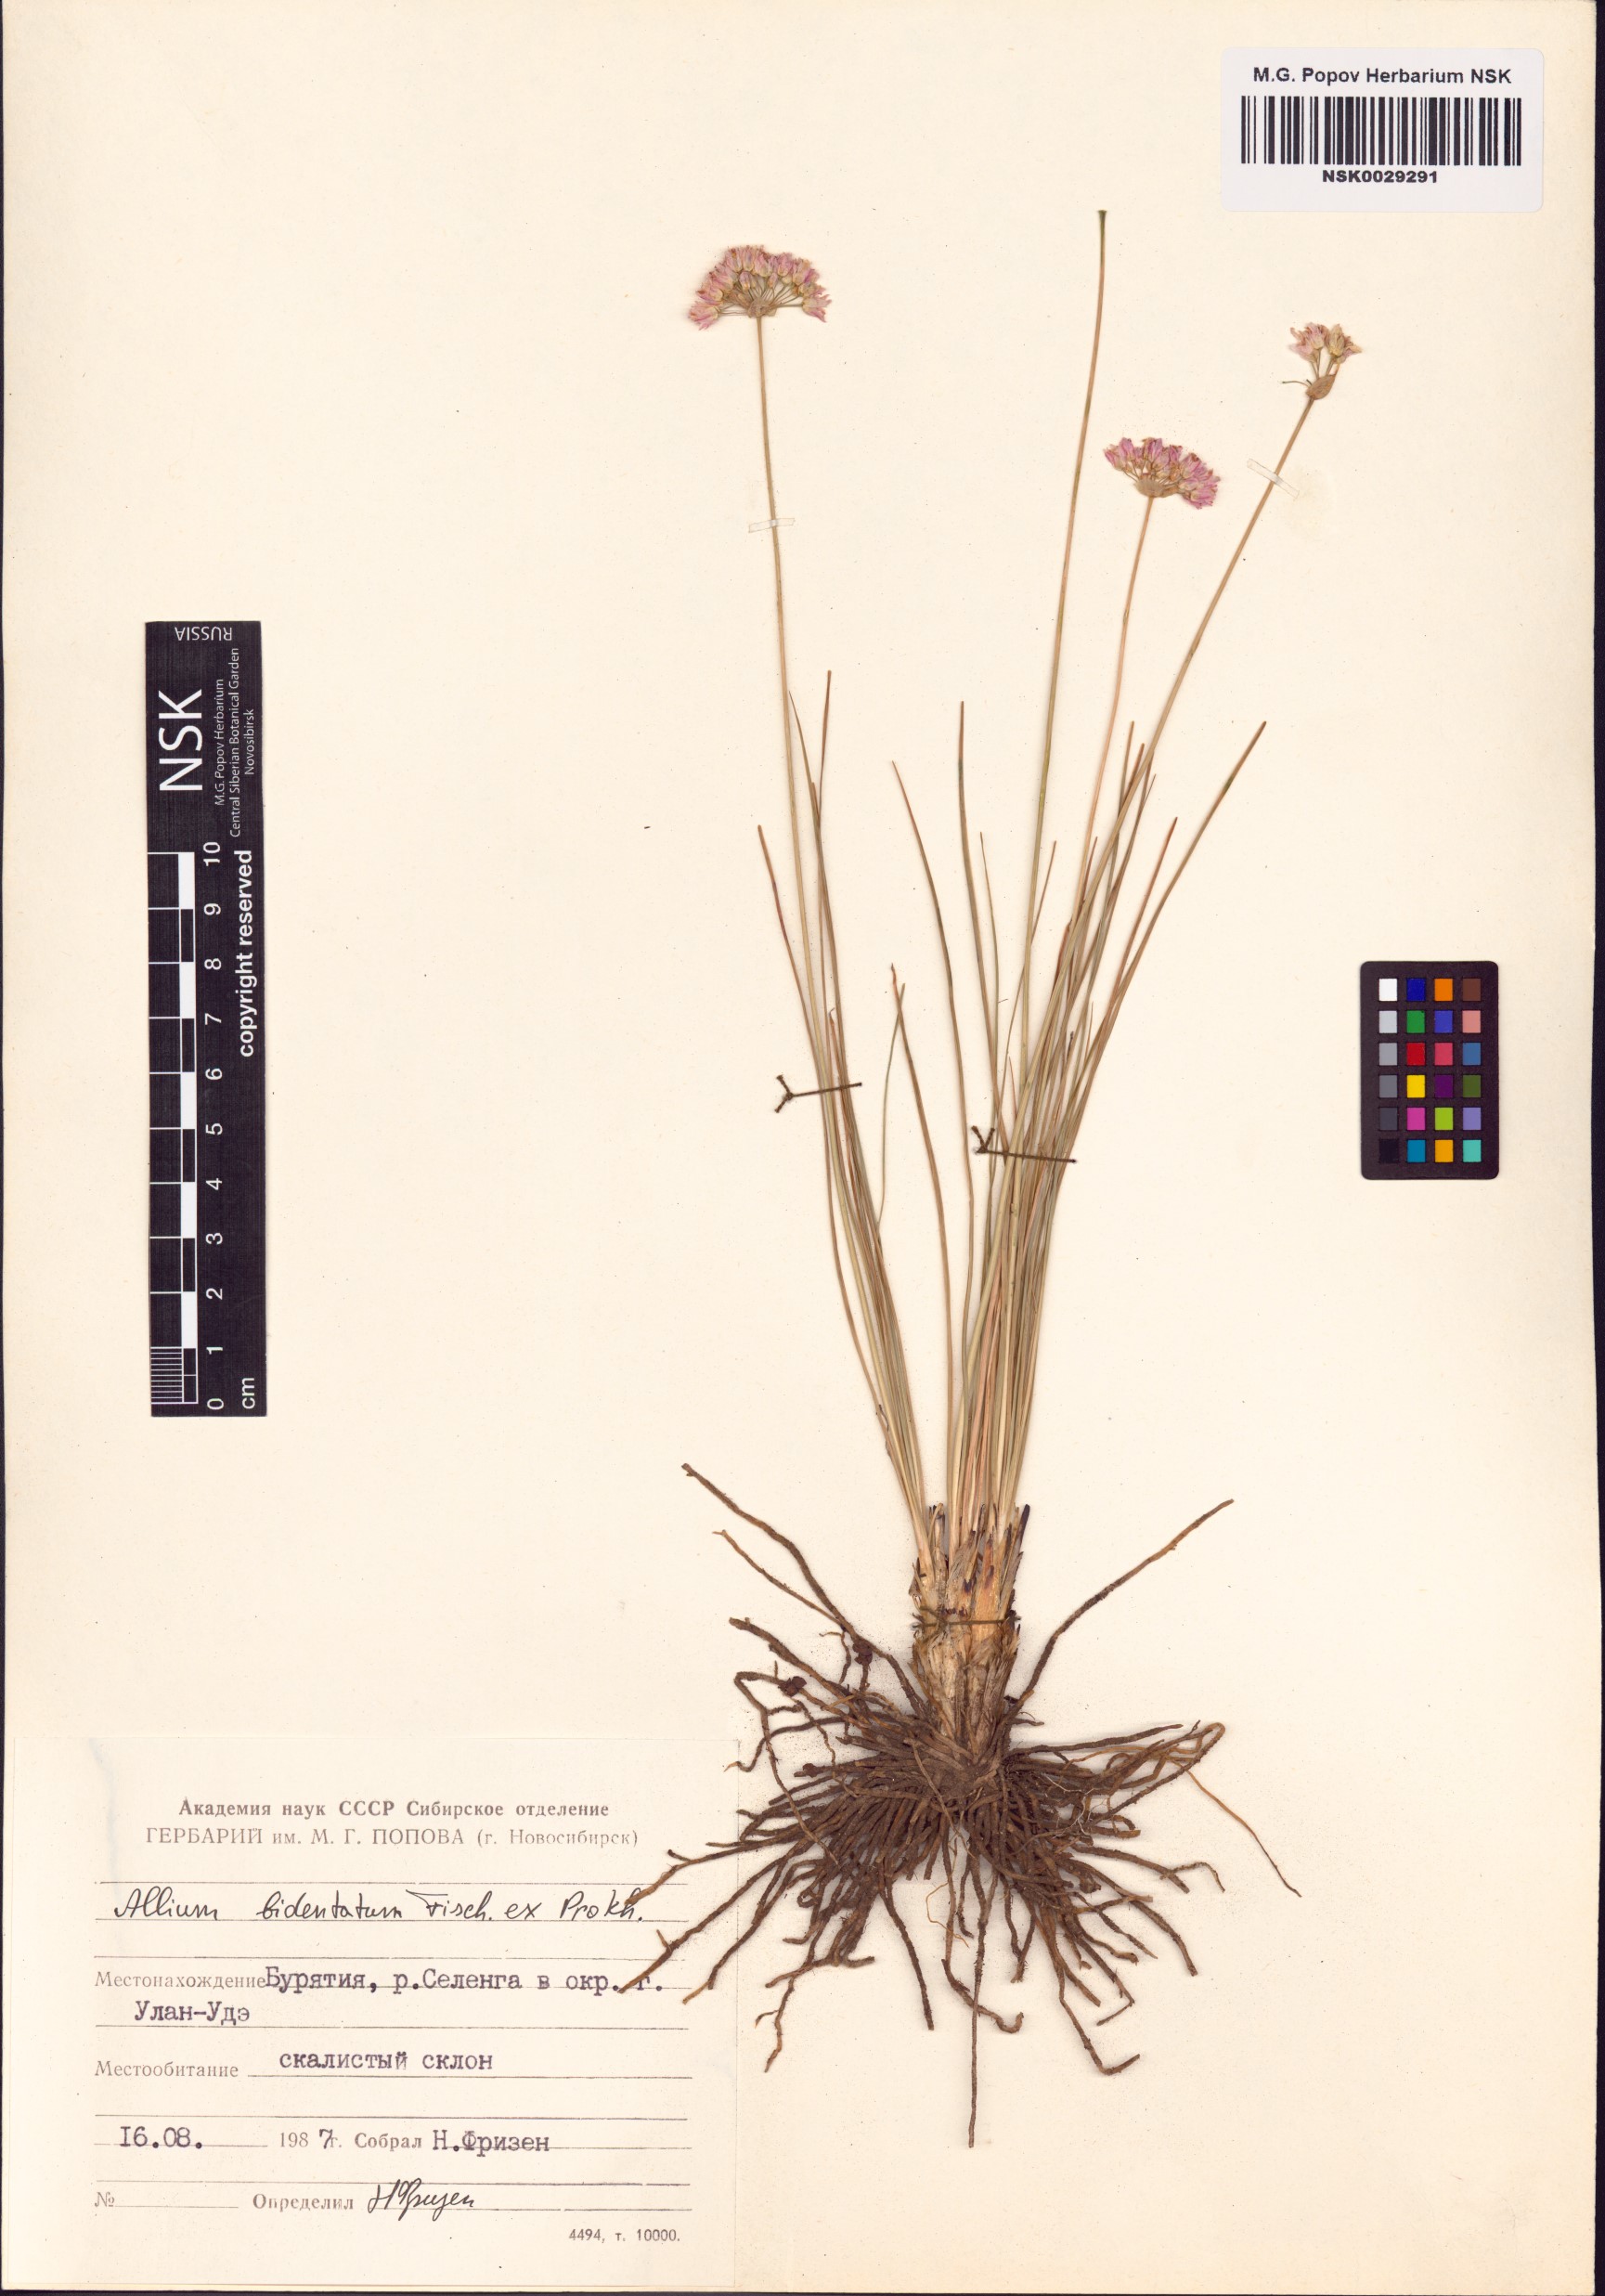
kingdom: Plantae
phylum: Tracheophyta
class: Liliopsida
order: Asparagales
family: Amaryllidaceae
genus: Allium
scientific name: Allium bidentatum
